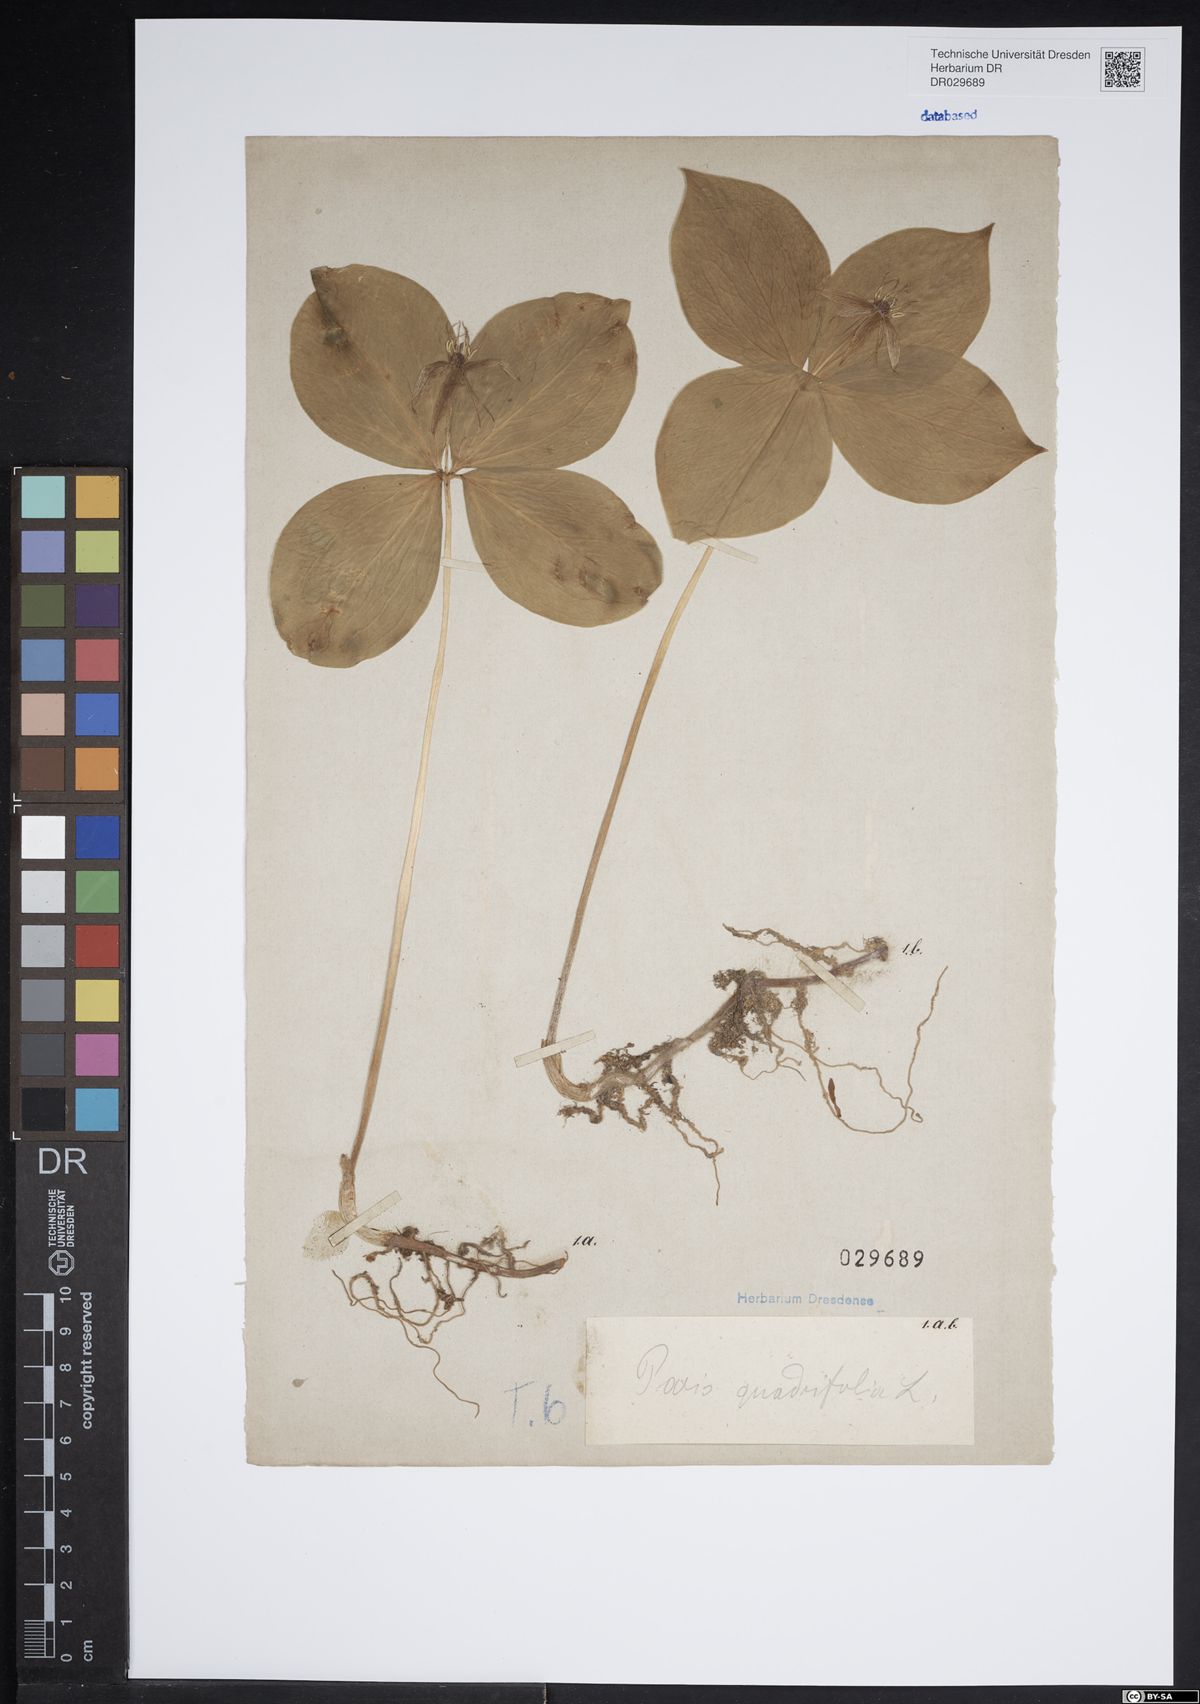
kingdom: Plantae
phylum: Tracheophyta
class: Liliopsida
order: Liliales
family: Melanthiaceae
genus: Paris
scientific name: Paris quadrifolia
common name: Herb-paris
